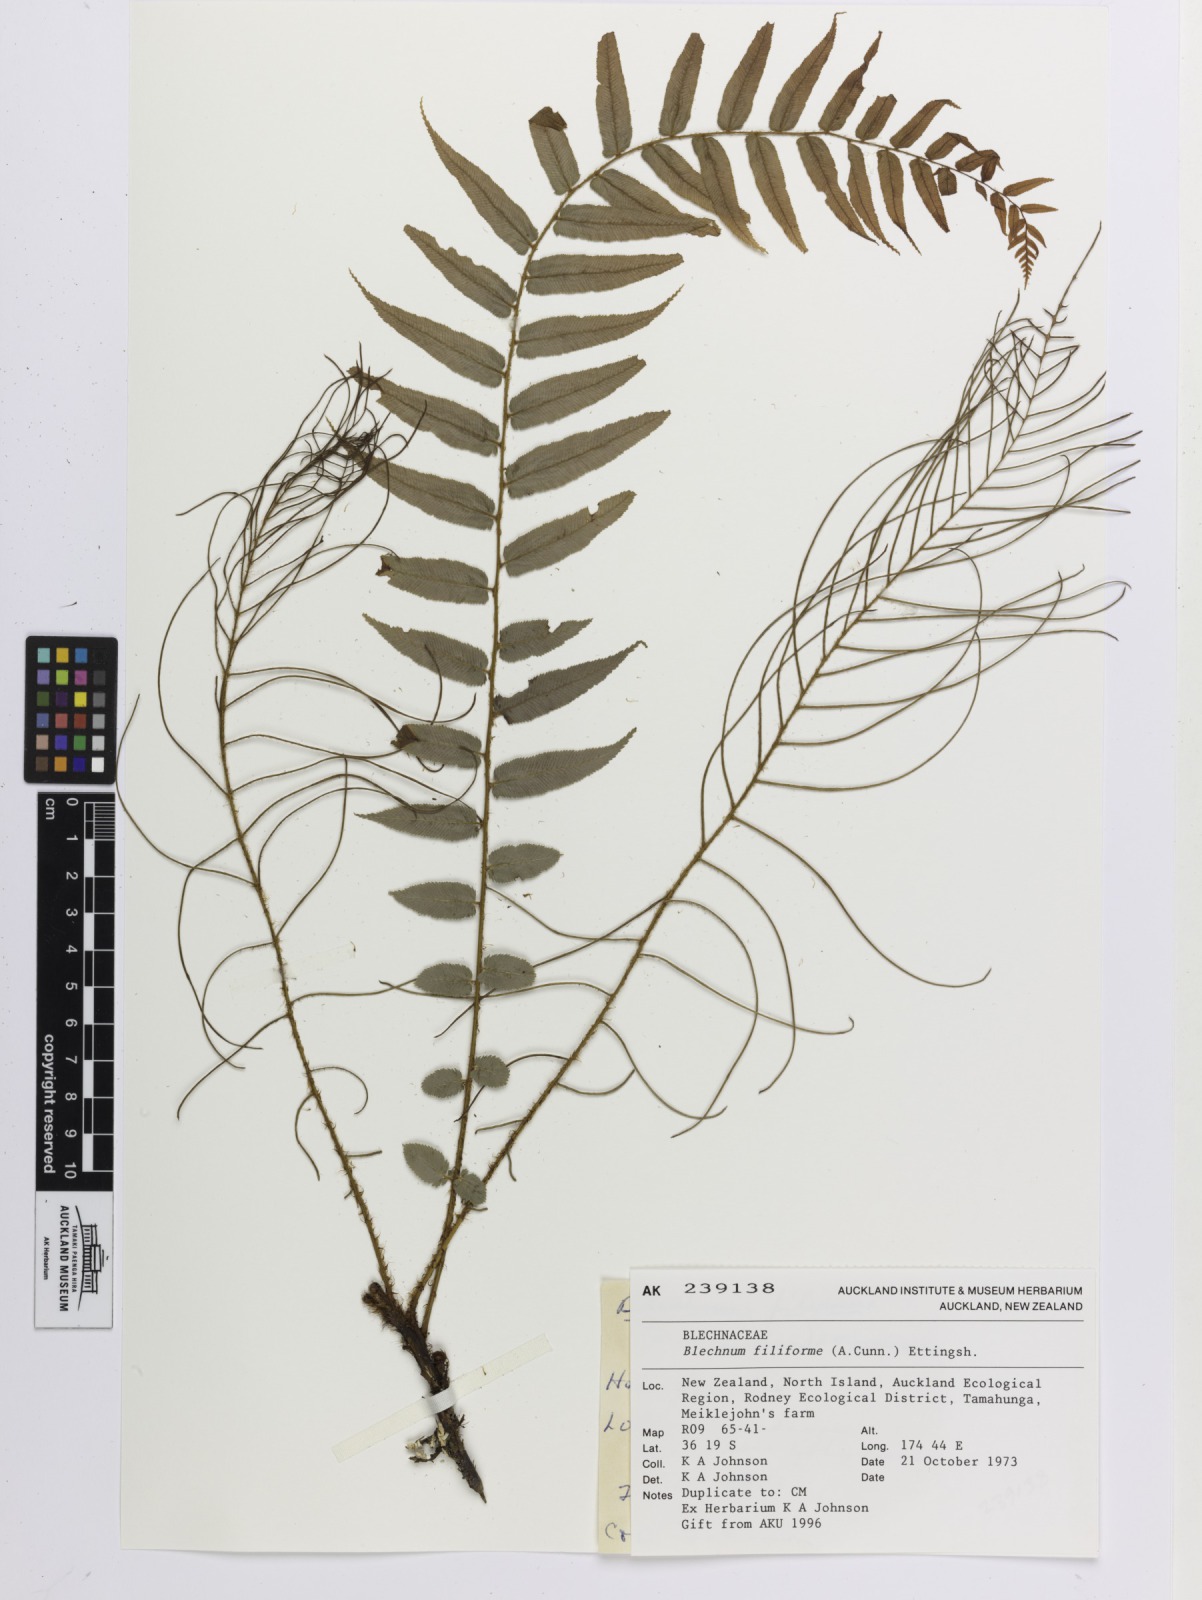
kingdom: Plantae
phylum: Tracheophyta
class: Polypodiopsida
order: Polypodiales
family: Blechnaceae
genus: Icarus
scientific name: Icarus filiformis
